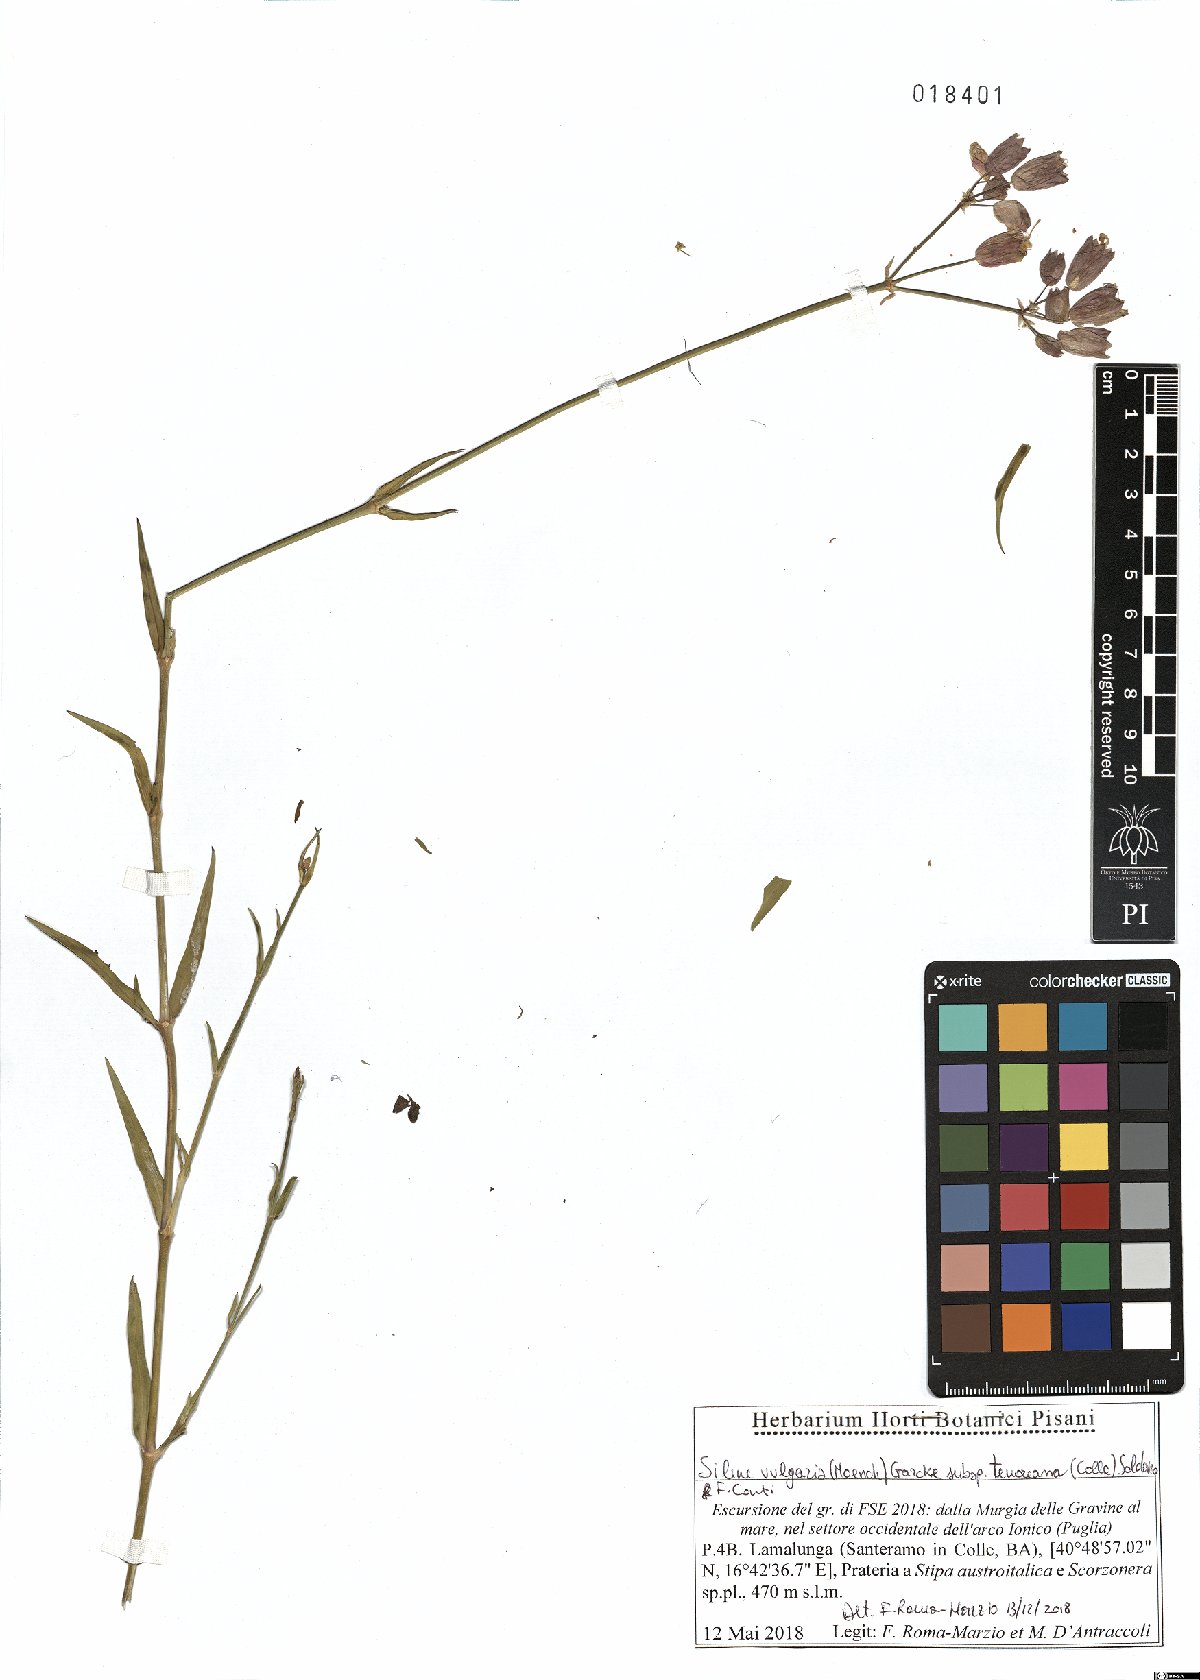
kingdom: Plantae
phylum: Tracheophyta
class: Magnoliopsida
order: Caryophyllales
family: Caryophyllaceae
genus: Silene
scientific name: Silene vulgaris
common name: Bladder campion
